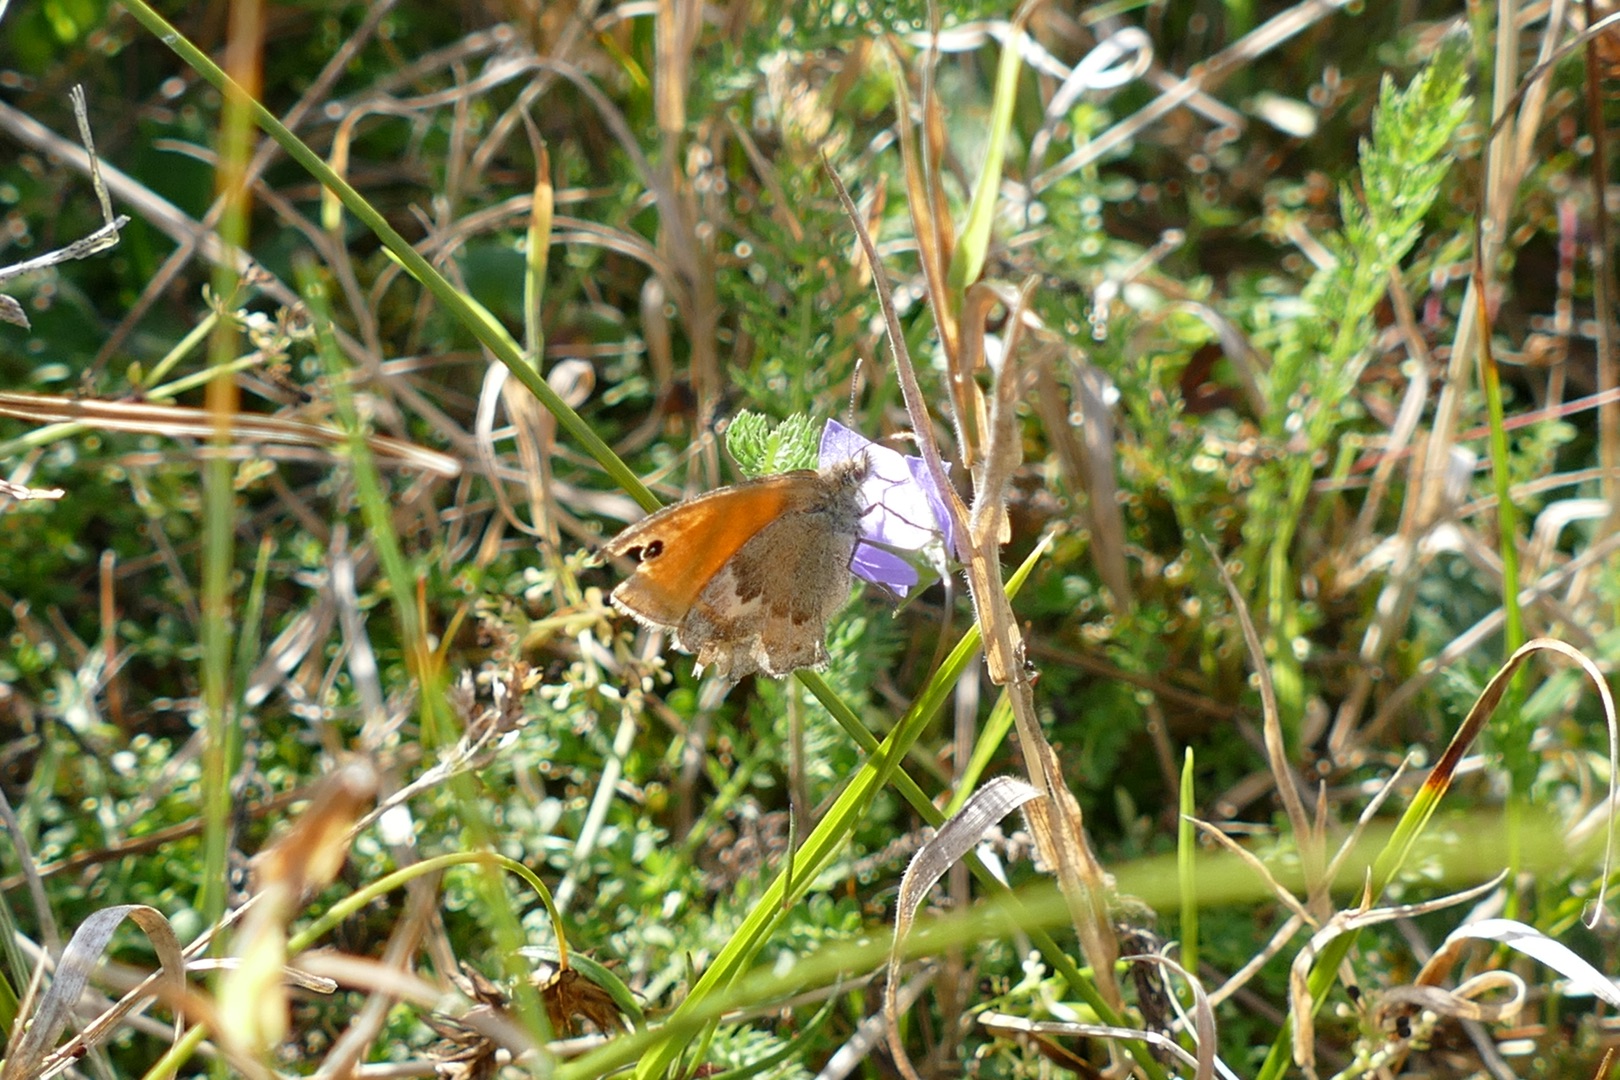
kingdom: Animalia
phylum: Arthropoda
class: Insecta
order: Lepidoptera
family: Nymphalidae
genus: Maniola
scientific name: Maniola jurtina
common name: Græsrandøje
